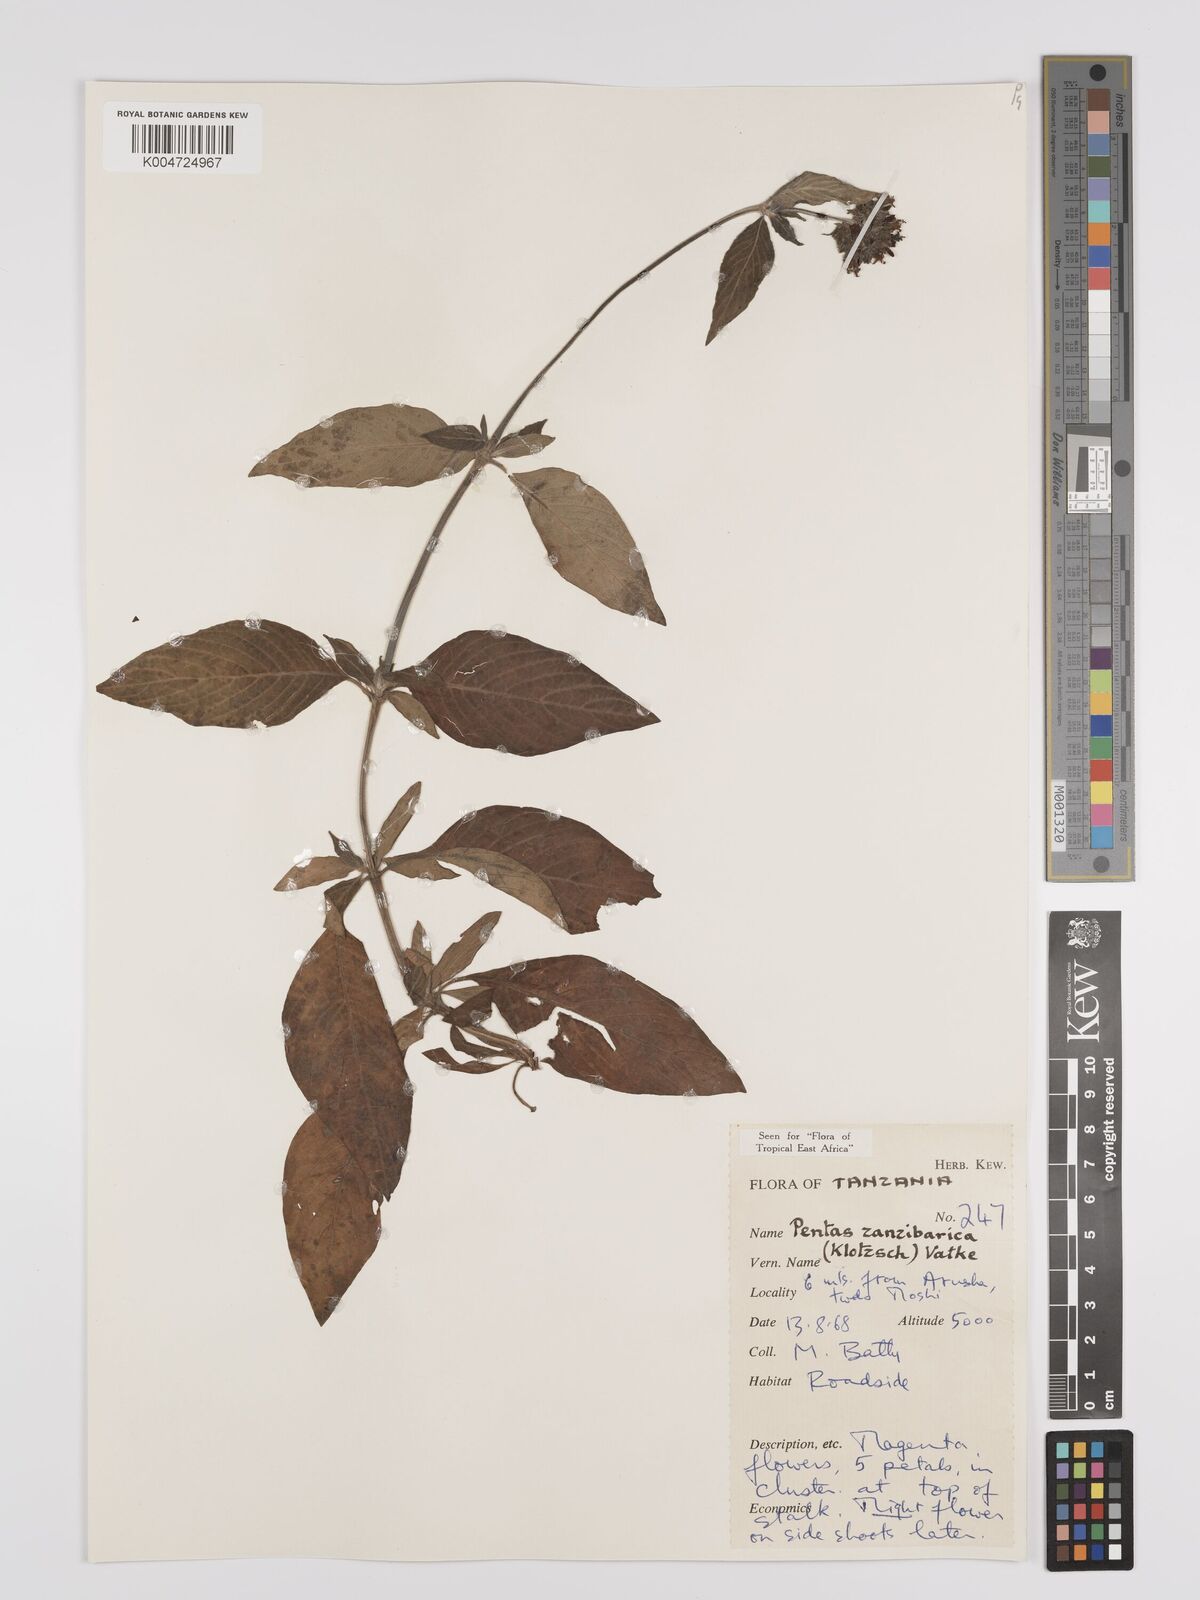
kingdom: Plantae
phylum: Tracheophyta
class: Magnoliopsida
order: Gentianales
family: Rubiaceae
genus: Pentas
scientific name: Pentas zanzibarica
